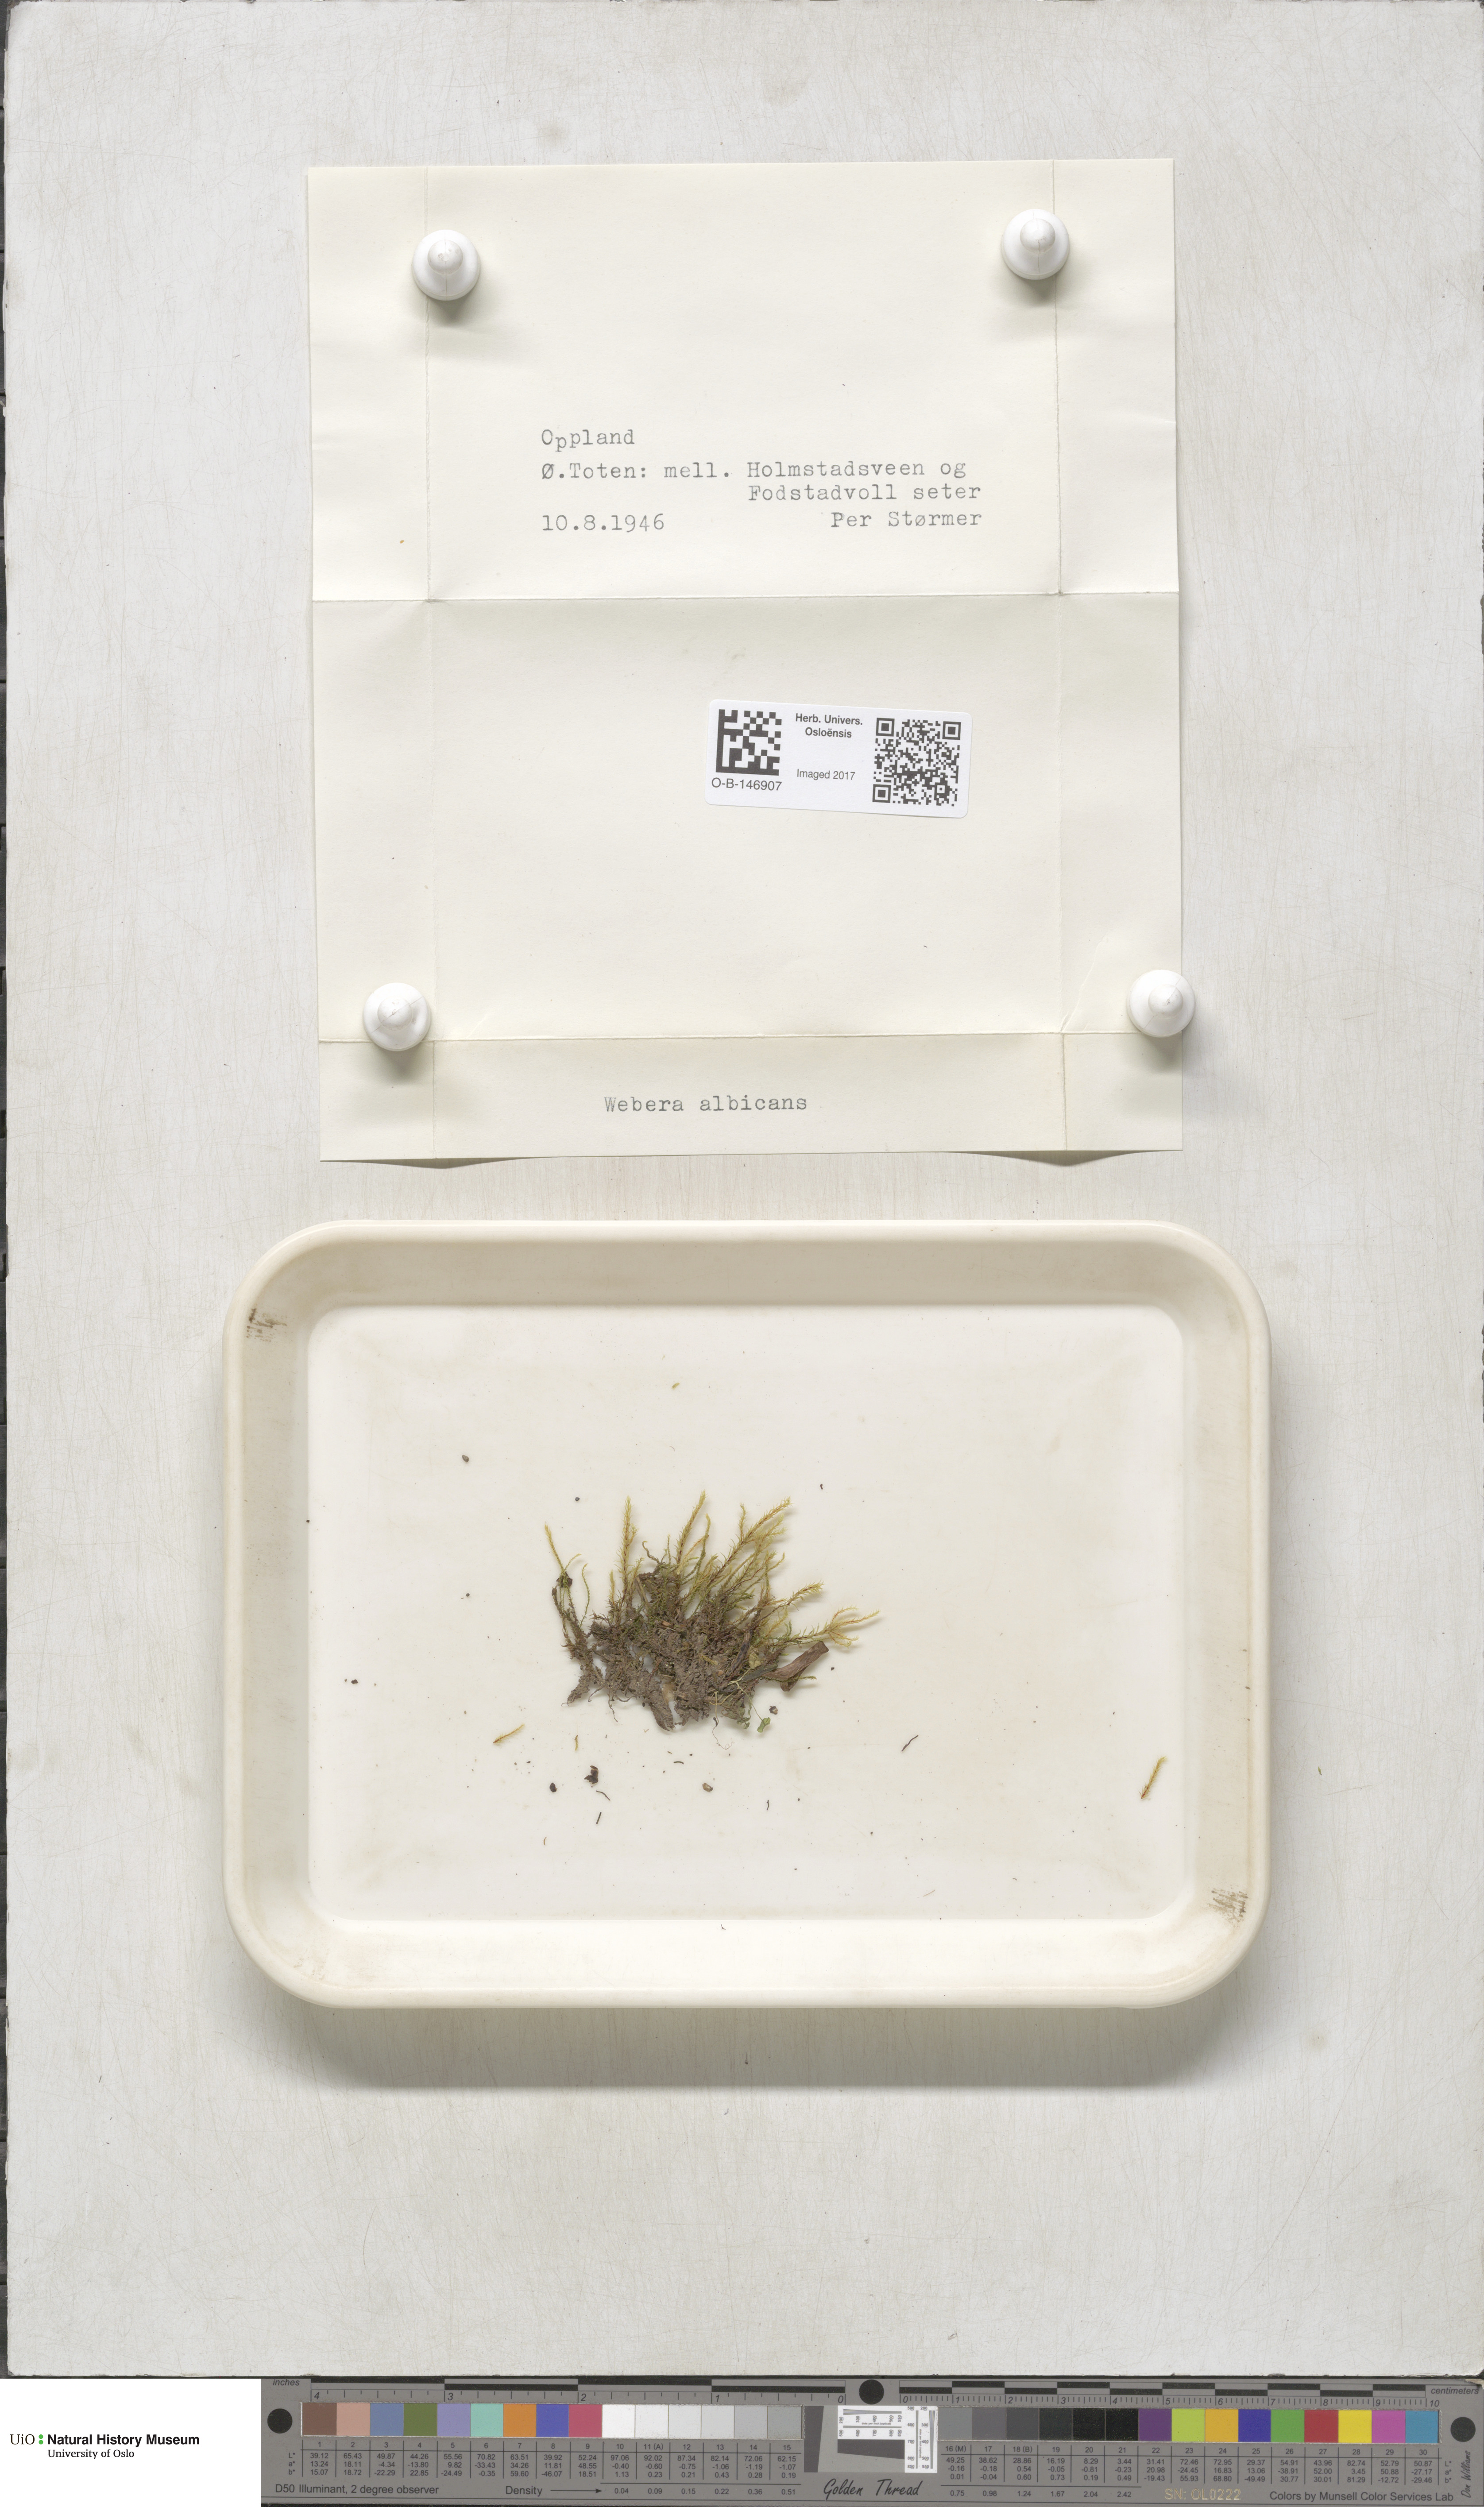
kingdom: Plantae
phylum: Bryophyta
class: Bryopsida
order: Bryales
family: Mniaceae
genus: Pohlia
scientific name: Pohlia wahlenbergii
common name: Wahlenberg's nodding moss
